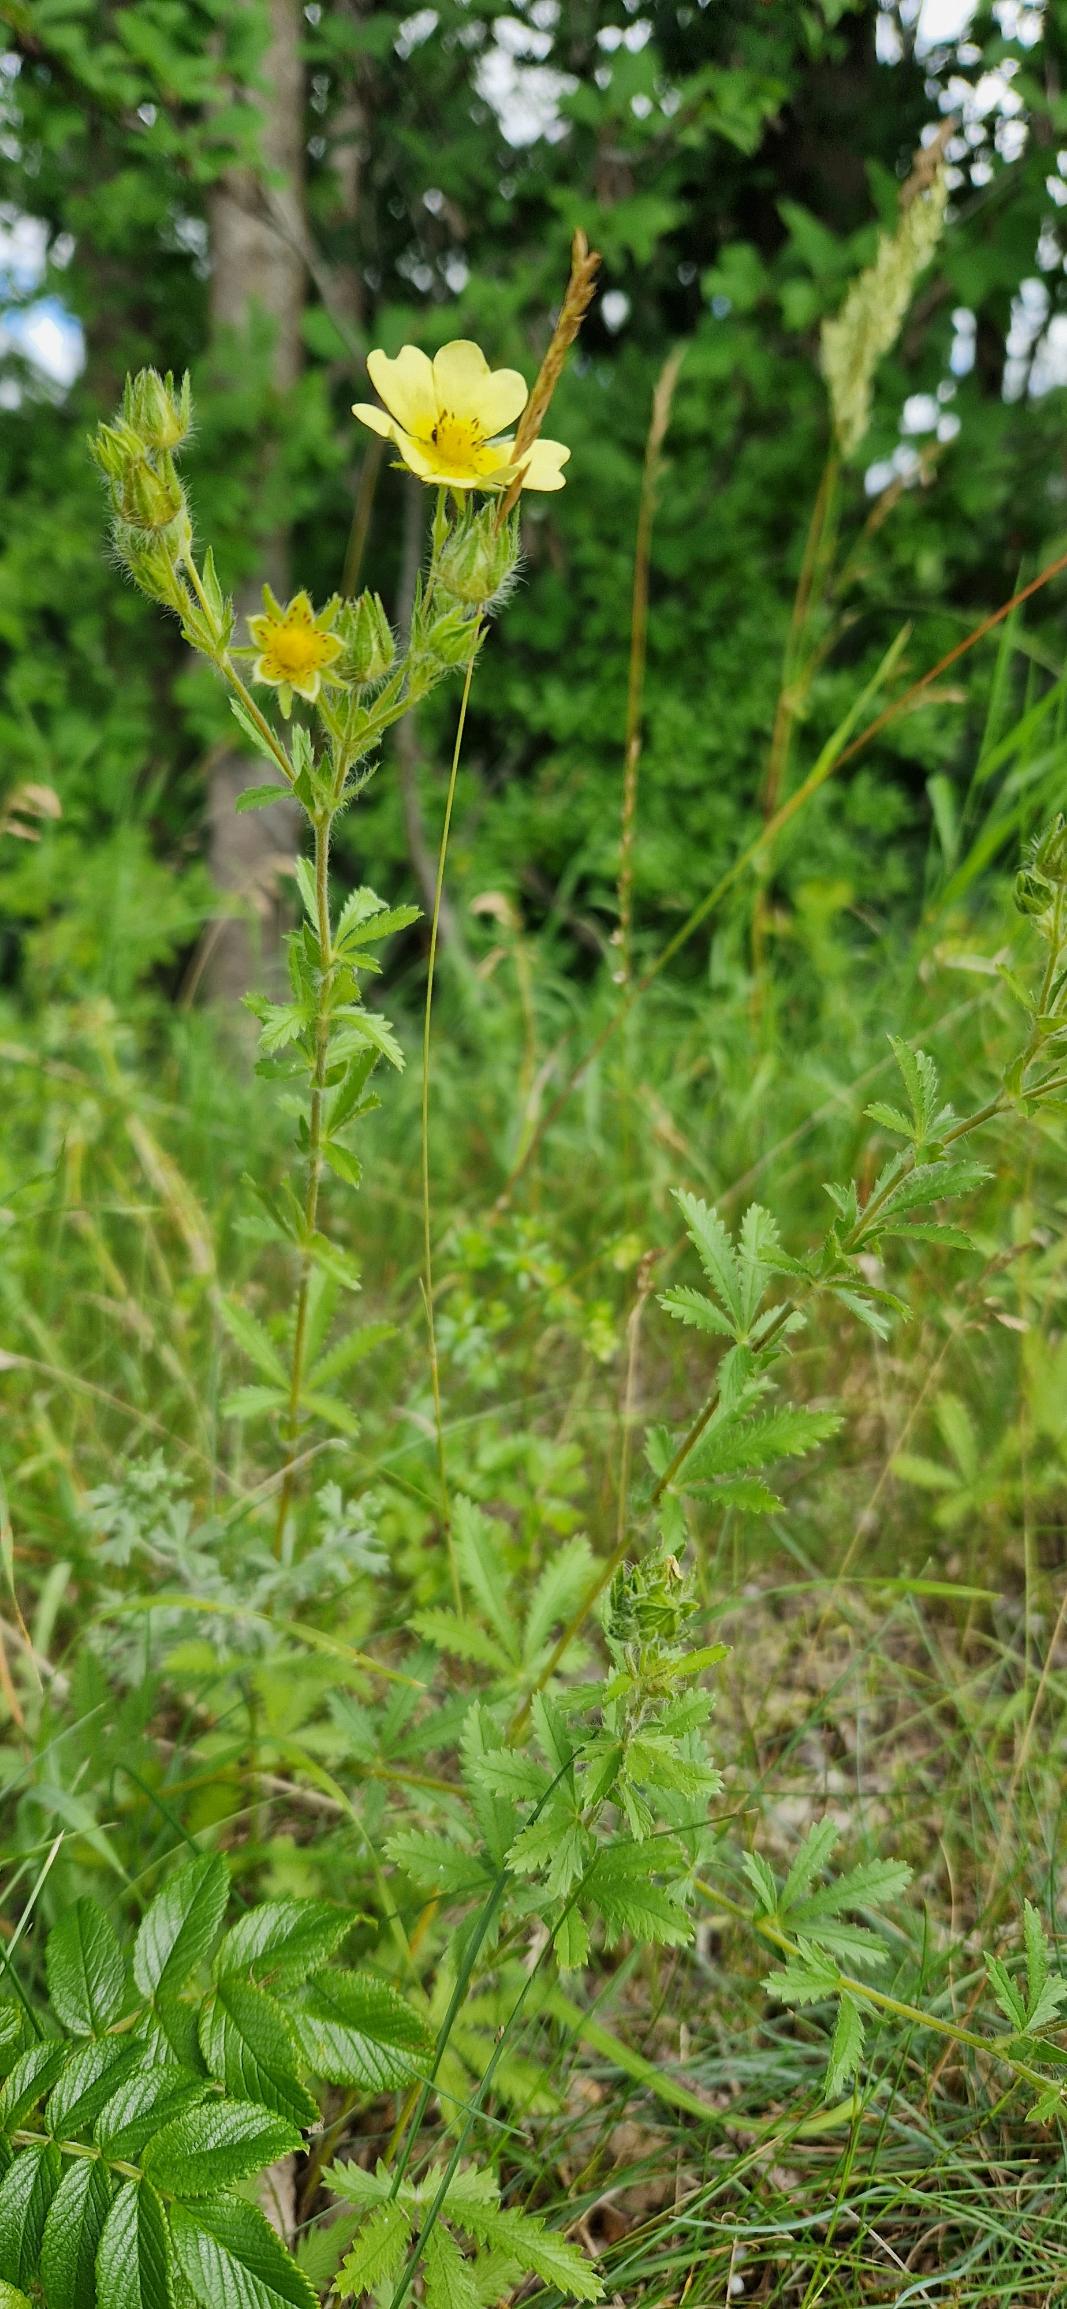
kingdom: Plantae
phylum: Tracheophyta
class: Magnoliopsida
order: Rosales
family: Rosaceae
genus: Potentilla
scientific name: Potentilla recta
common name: Rank potentil
